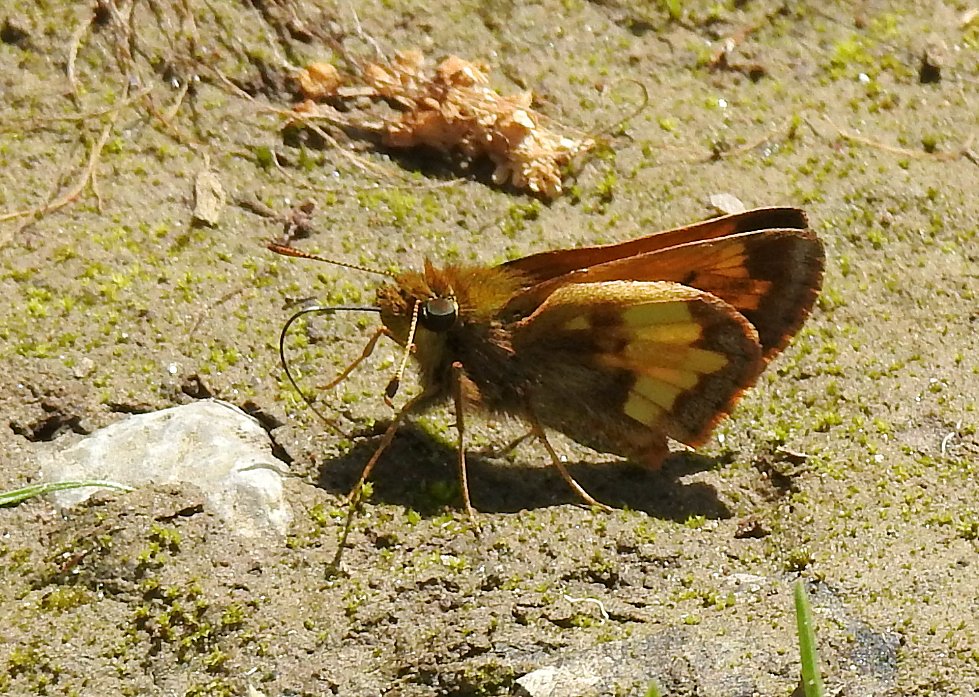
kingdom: Animalia
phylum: Arthropoda
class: Insecta
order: Lepidoptera
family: Hesperiidae
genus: Lon
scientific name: Lon hobomok
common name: Hobomok Skipper
